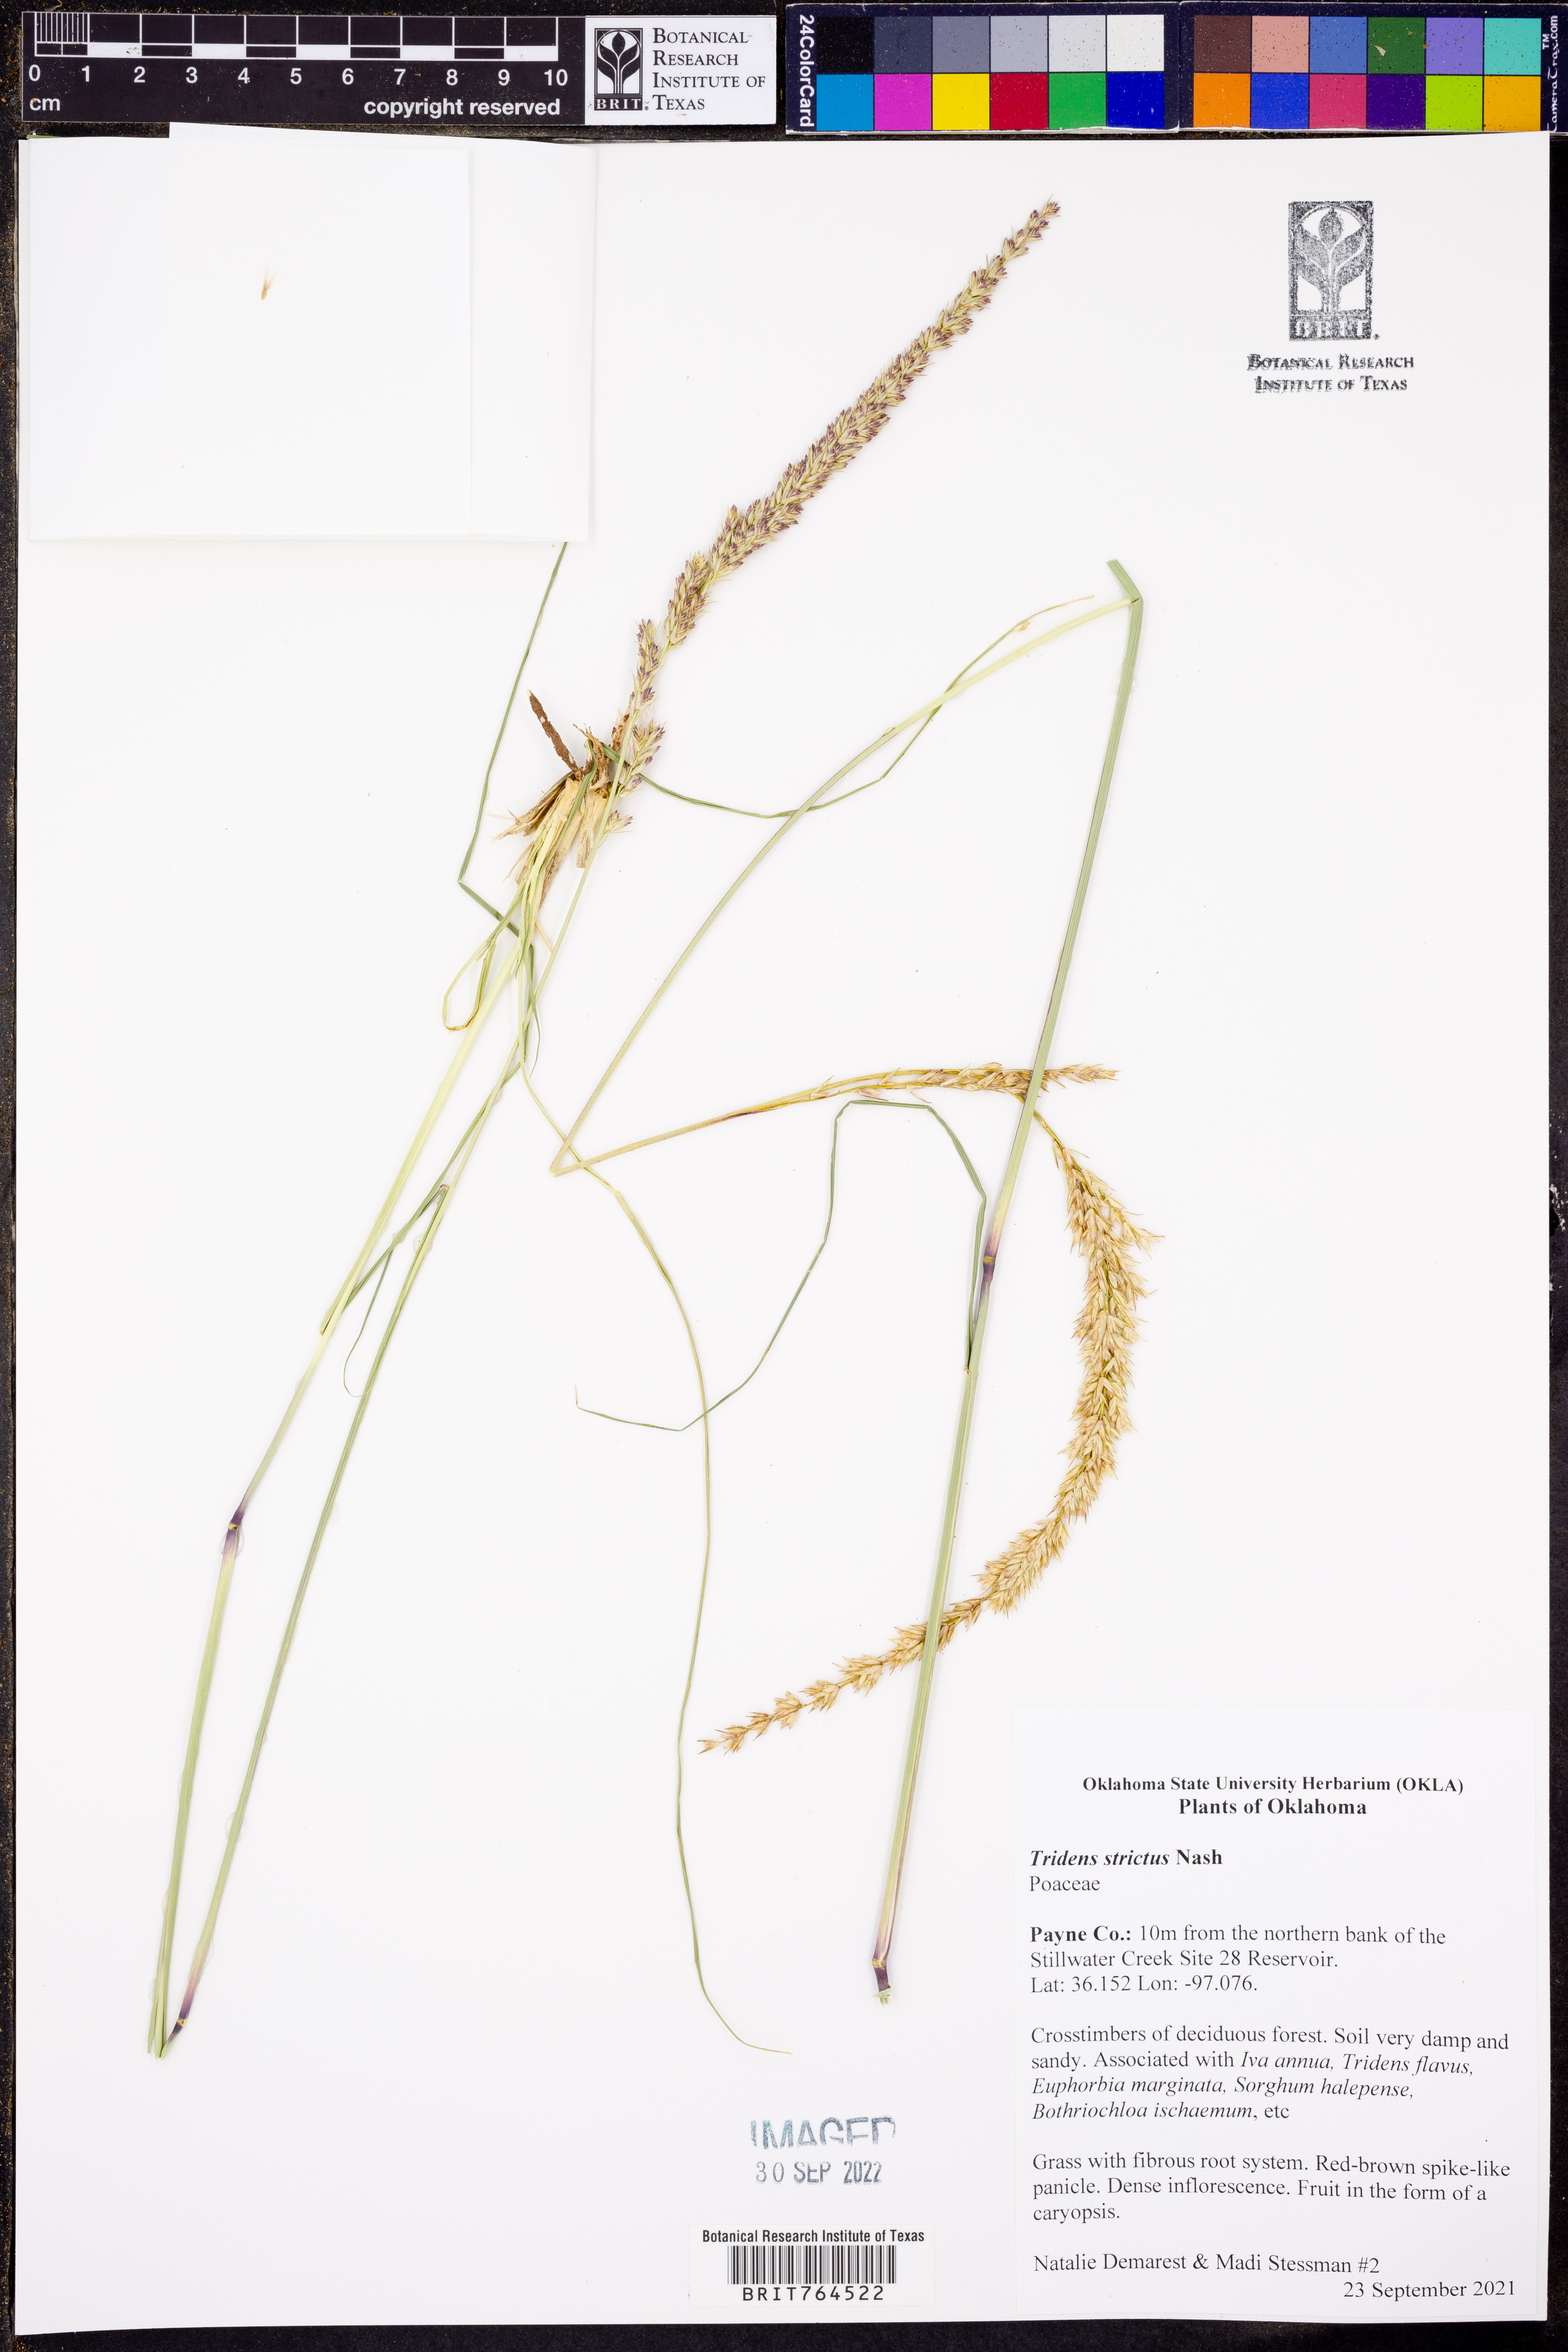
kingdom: Plantae
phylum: Tracheophyta
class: Liliopsida
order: Poales
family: Poaceae
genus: Tridens
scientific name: Tridens strictus
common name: Long-spike tridens
